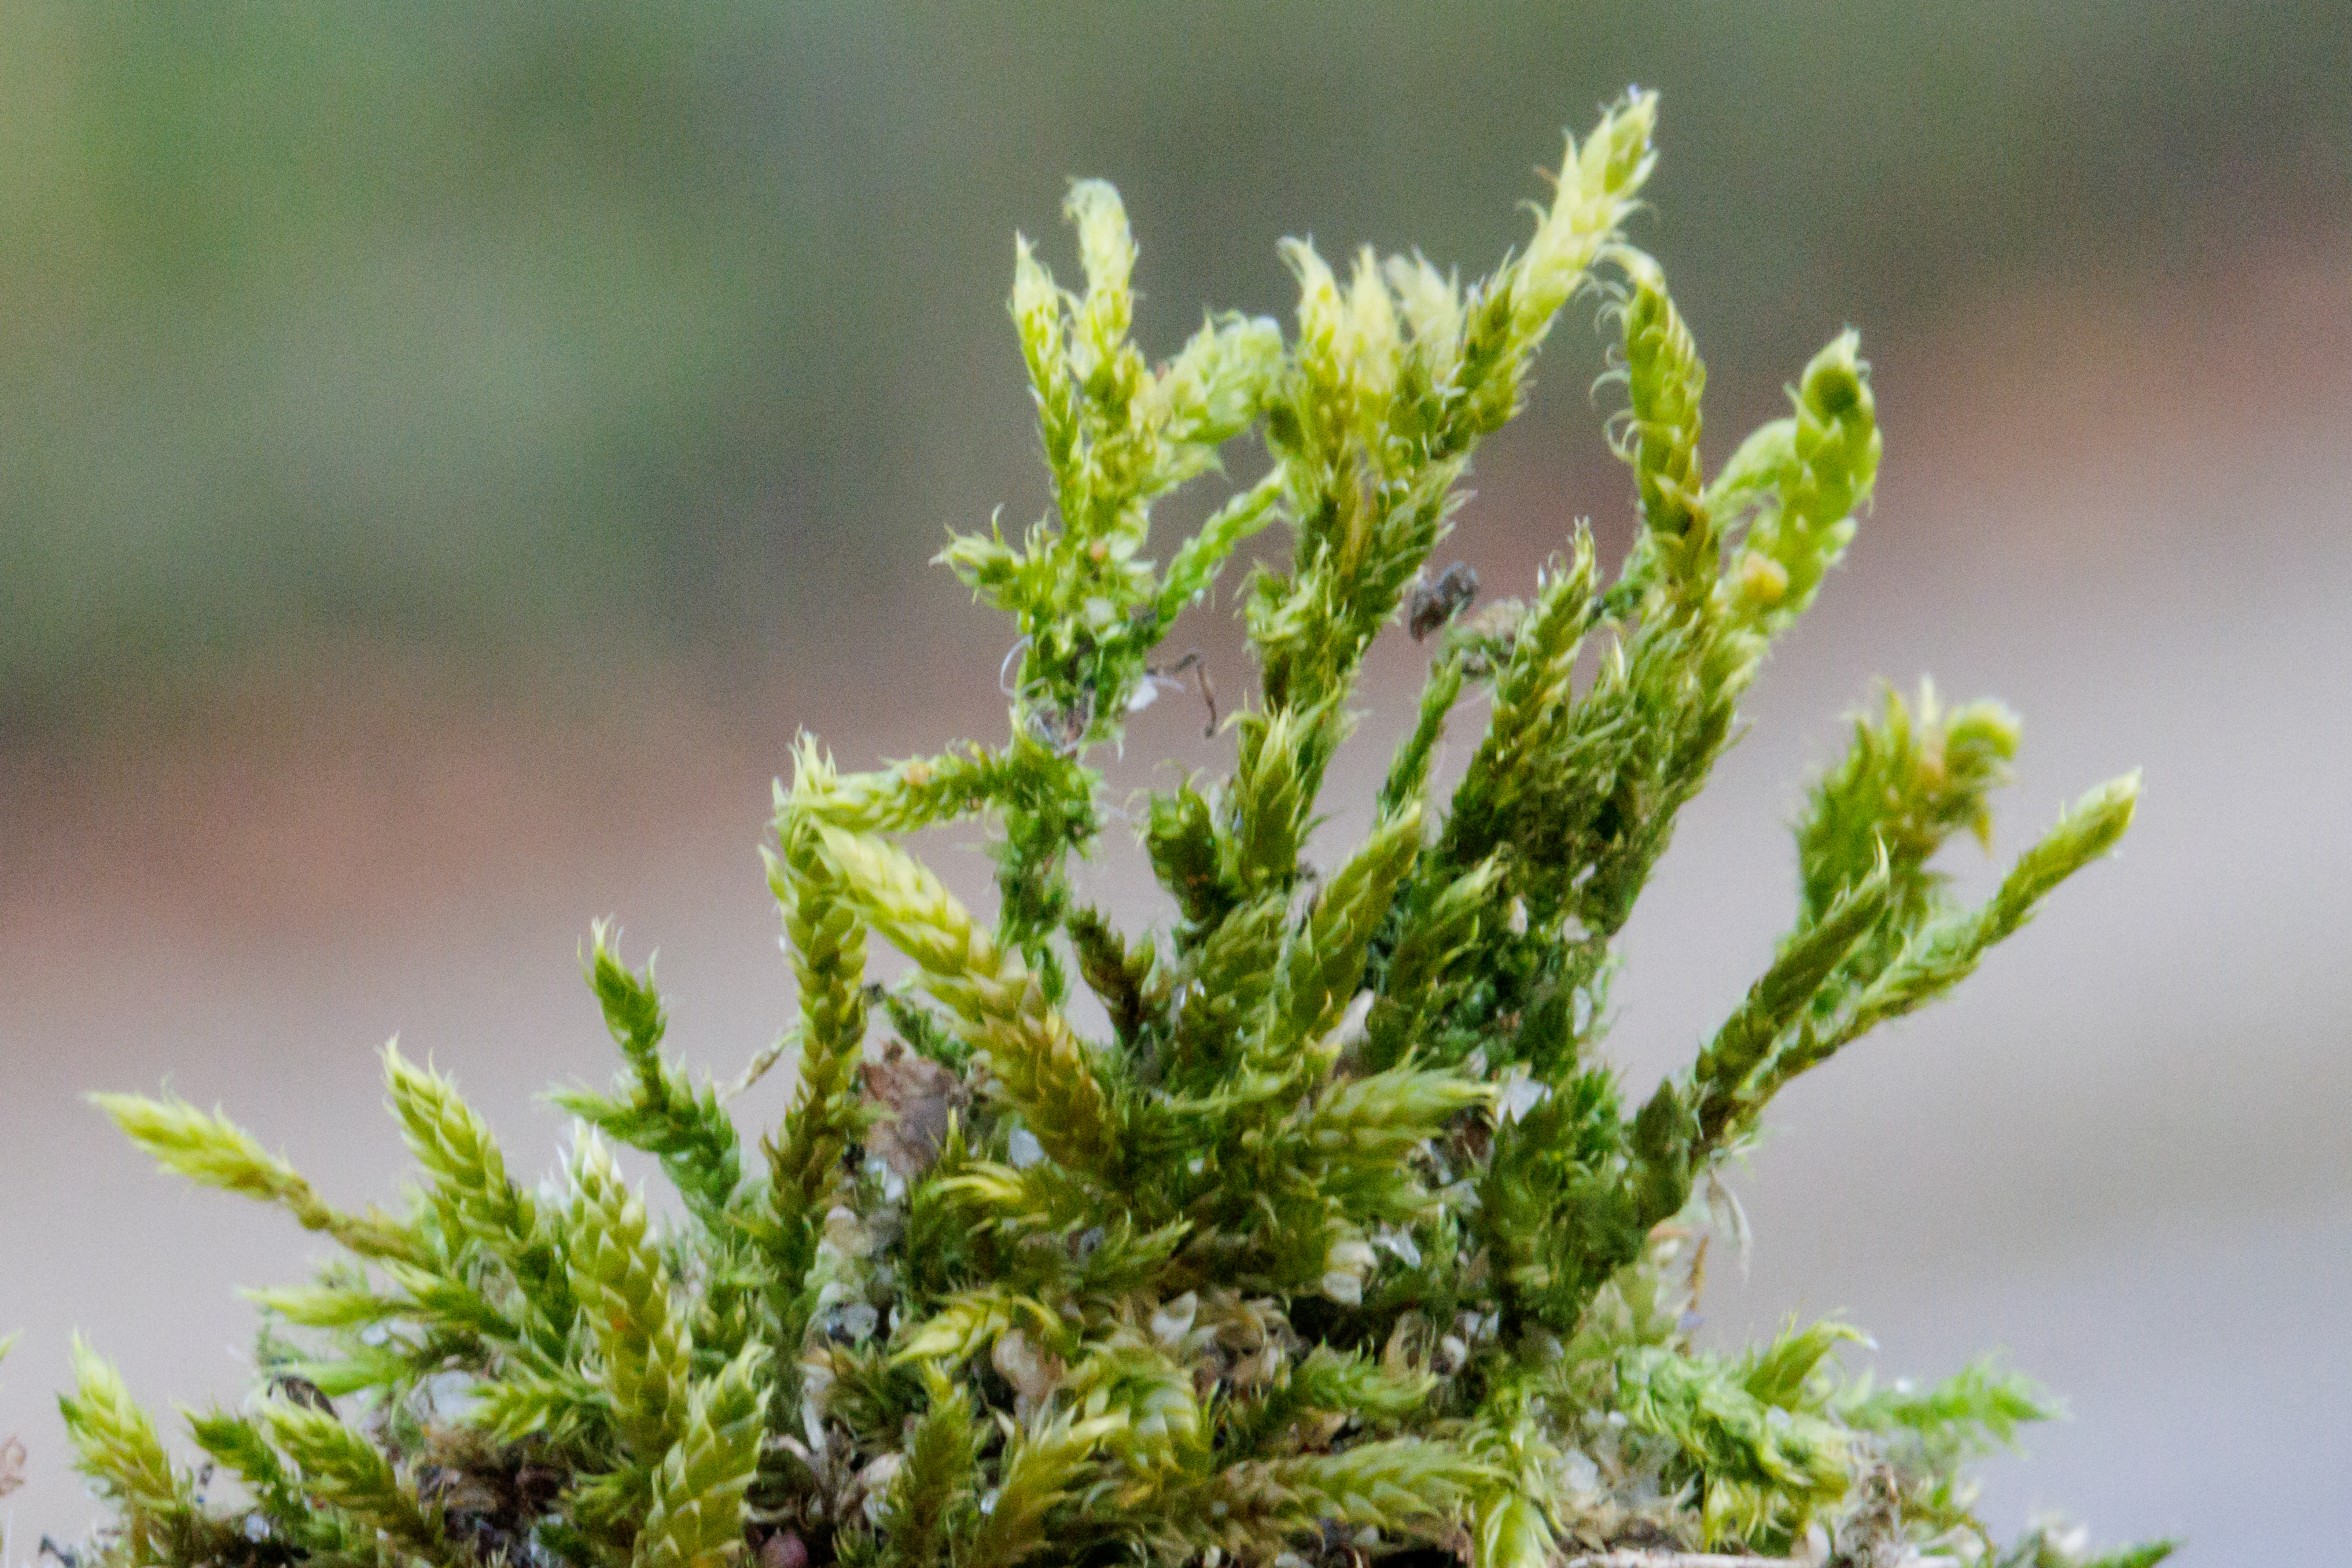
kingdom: Plantae
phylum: Bryophyta
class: Bryopsida
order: Hypnales
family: Hypnaceae
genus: Hypnum
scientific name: Hypnum cupressiforme
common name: Almindelig cypresmos
